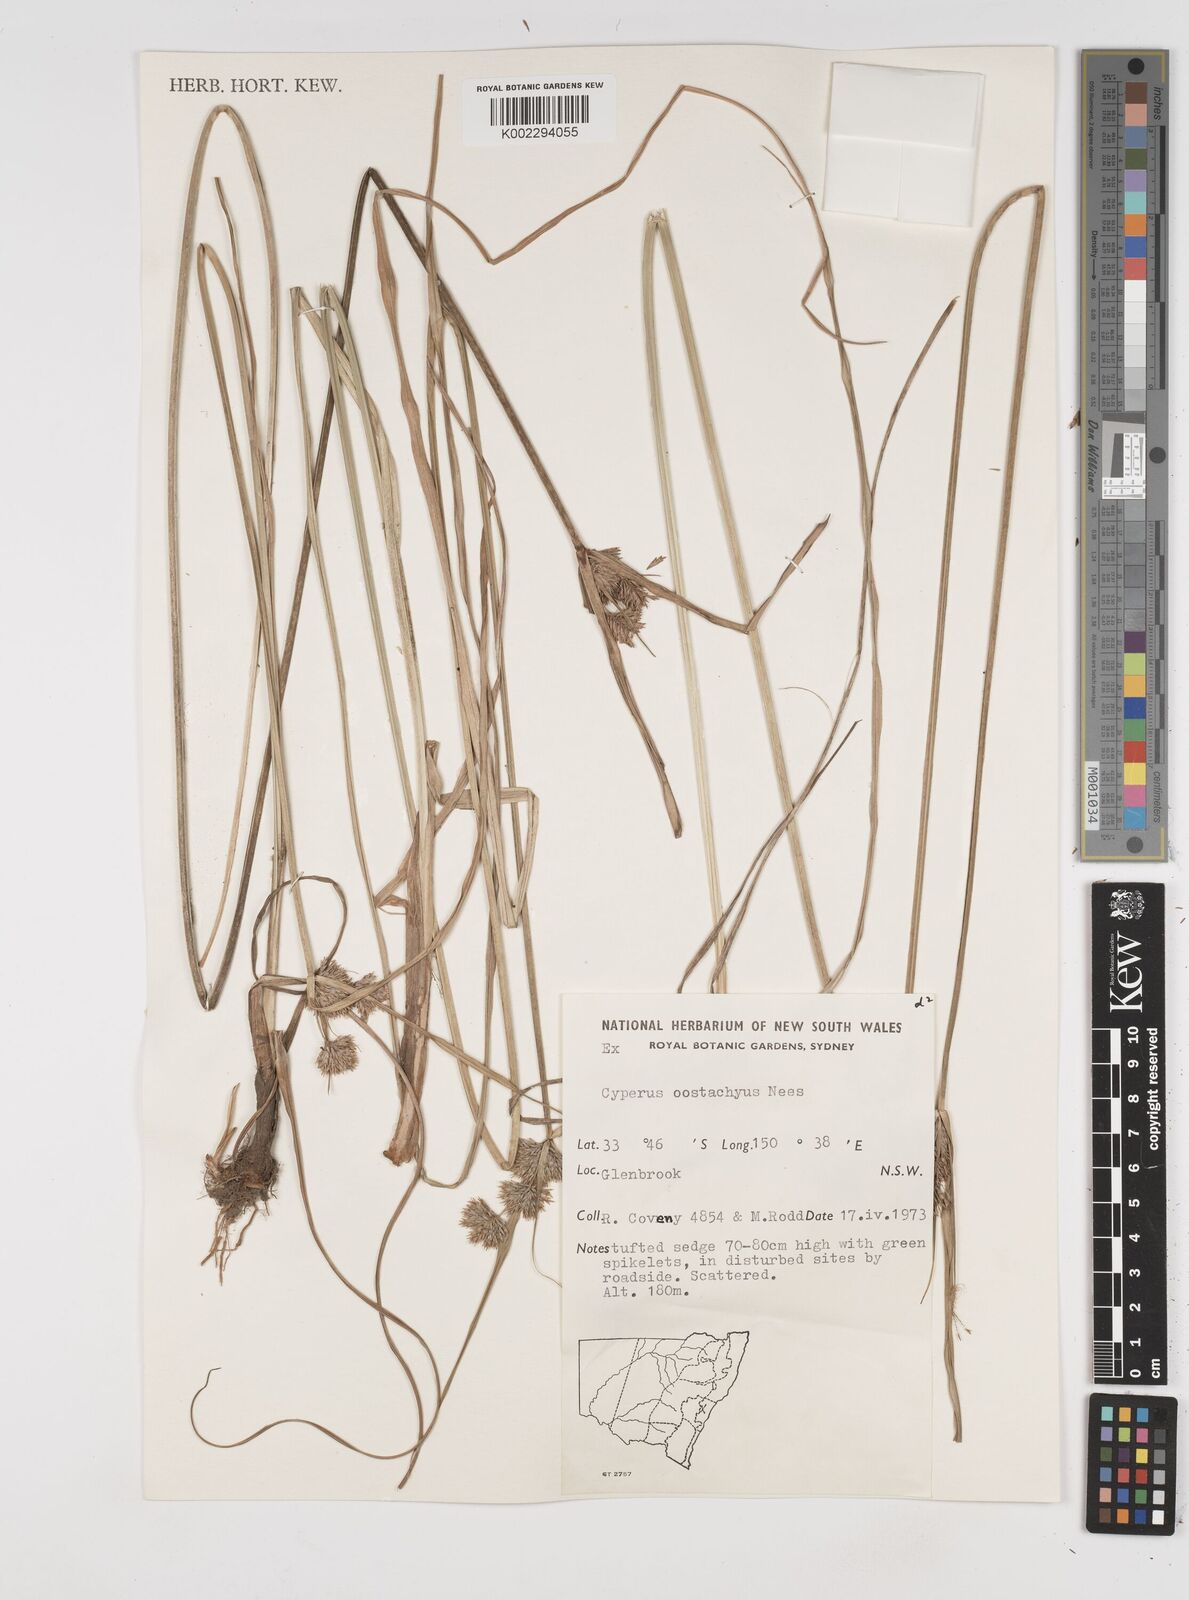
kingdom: Plantae
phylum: Tracheophyta
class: Liliopsida
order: Poales
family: Cyperaceae
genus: Cyperus
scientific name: Cyperus rigens
